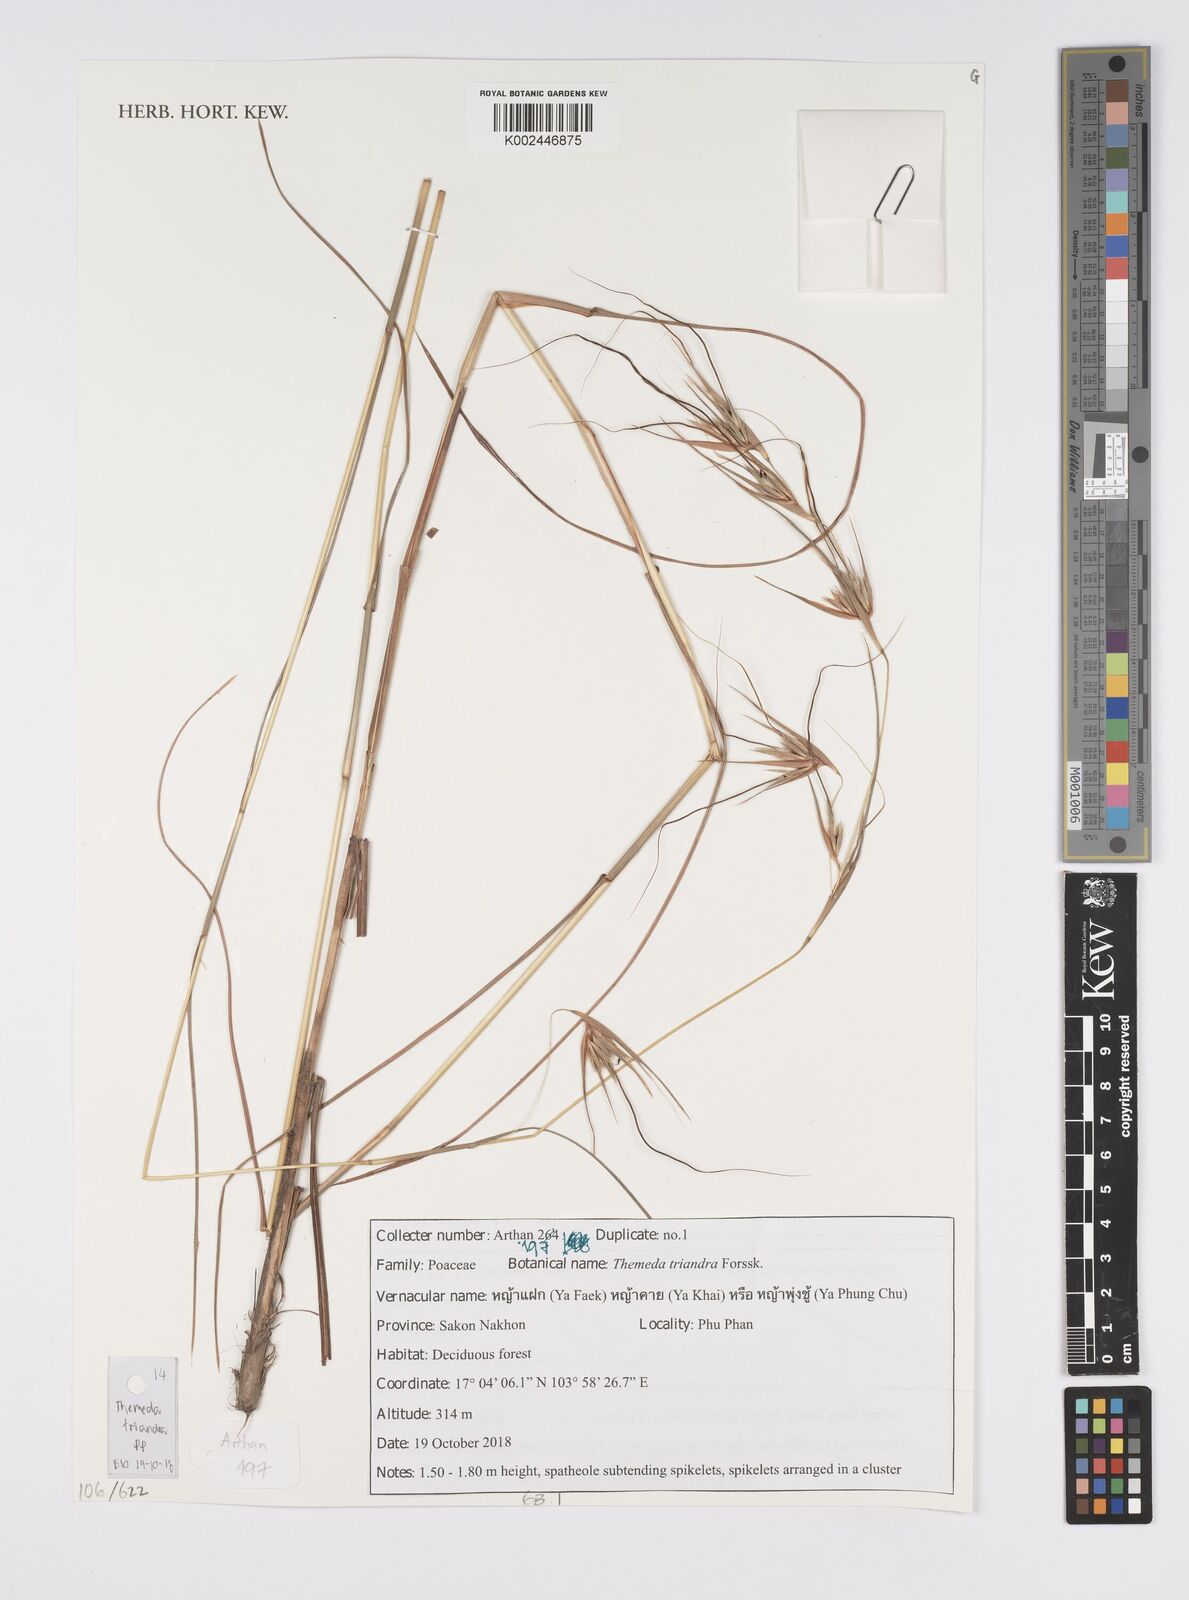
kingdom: Plantae
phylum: Tracheophyta
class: Liliopsida
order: Poales
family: Poaceae
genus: Themeda
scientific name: Themeda triandra
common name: Kangaroo grass
